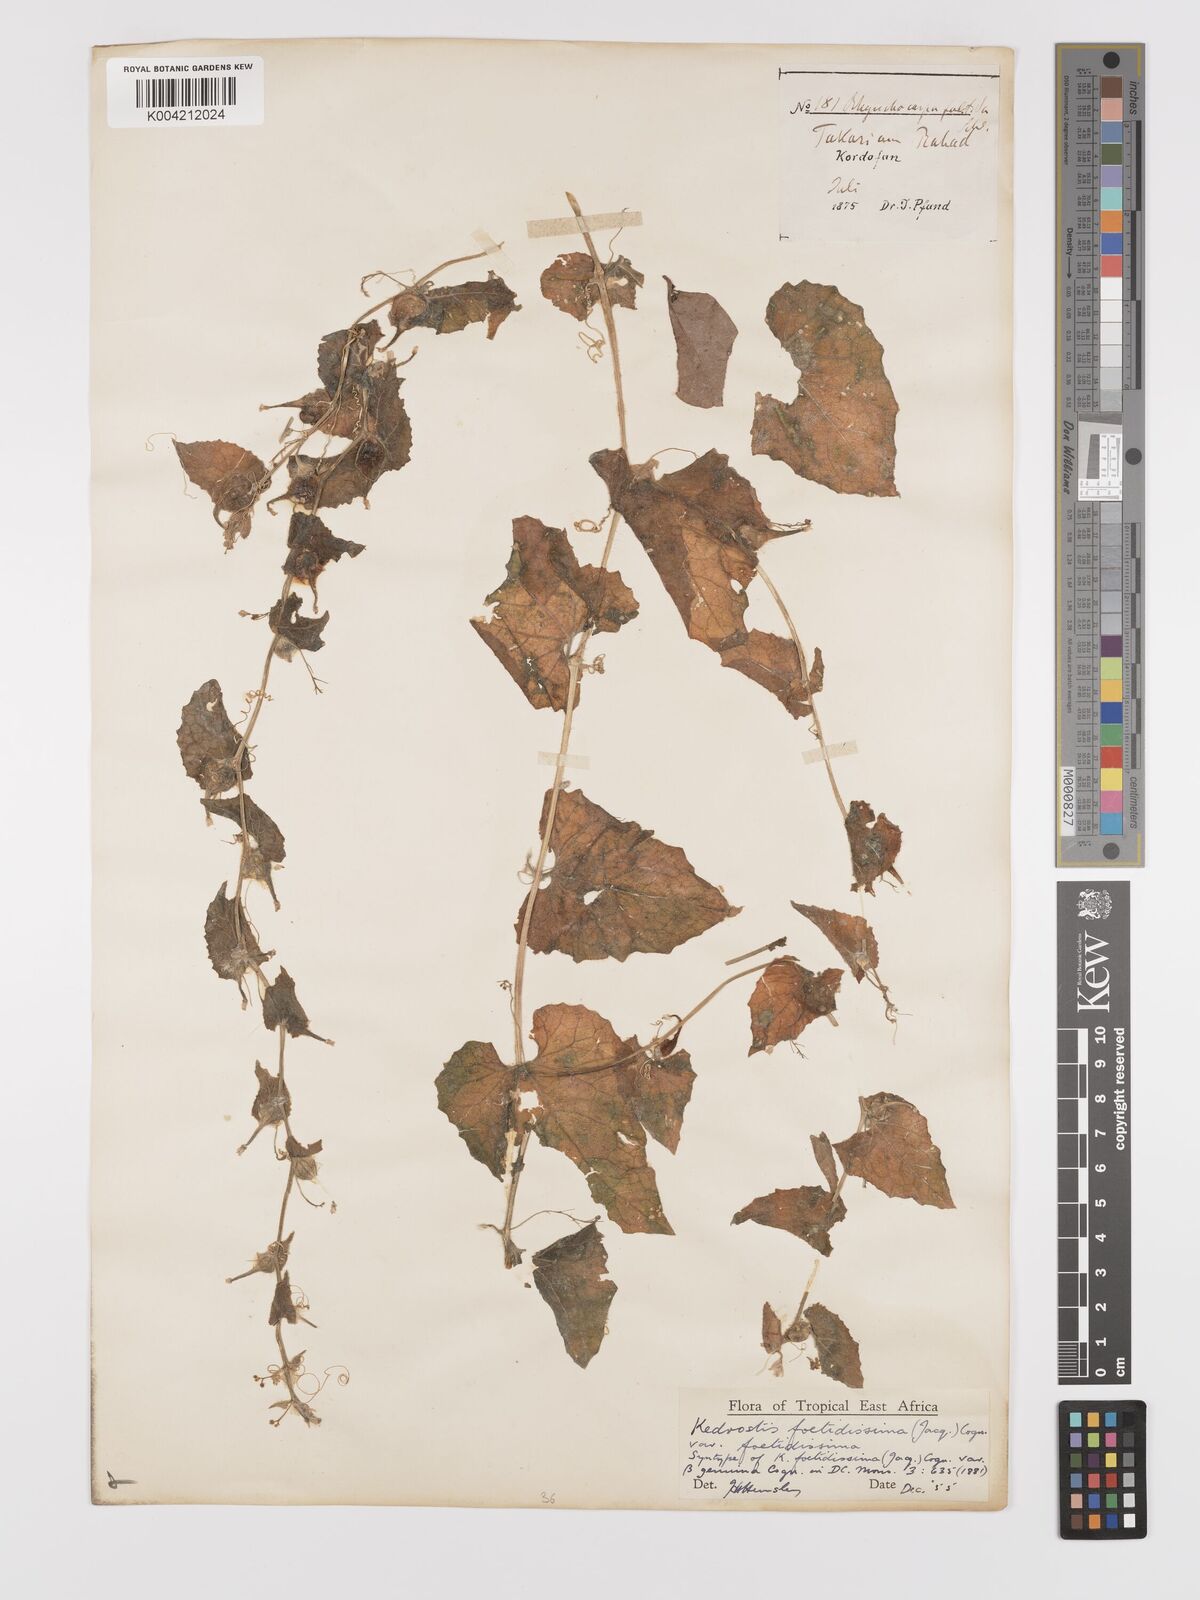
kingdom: Plantae
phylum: Tracheophyta
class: Magnoliopsida
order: Cucurbitales
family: Cucurbitaceae
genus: Kedrostis
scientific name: Kedrostis foetidissima
